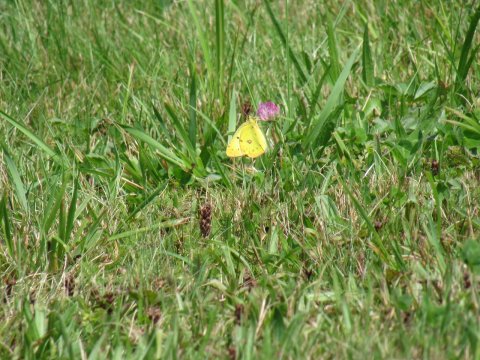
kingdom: Animalia
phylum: Arthropoda
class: Insecta
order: Lepidoptera
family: Pieridae
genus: Colias
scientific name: Colias philodice
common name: Clouded Sulphur
